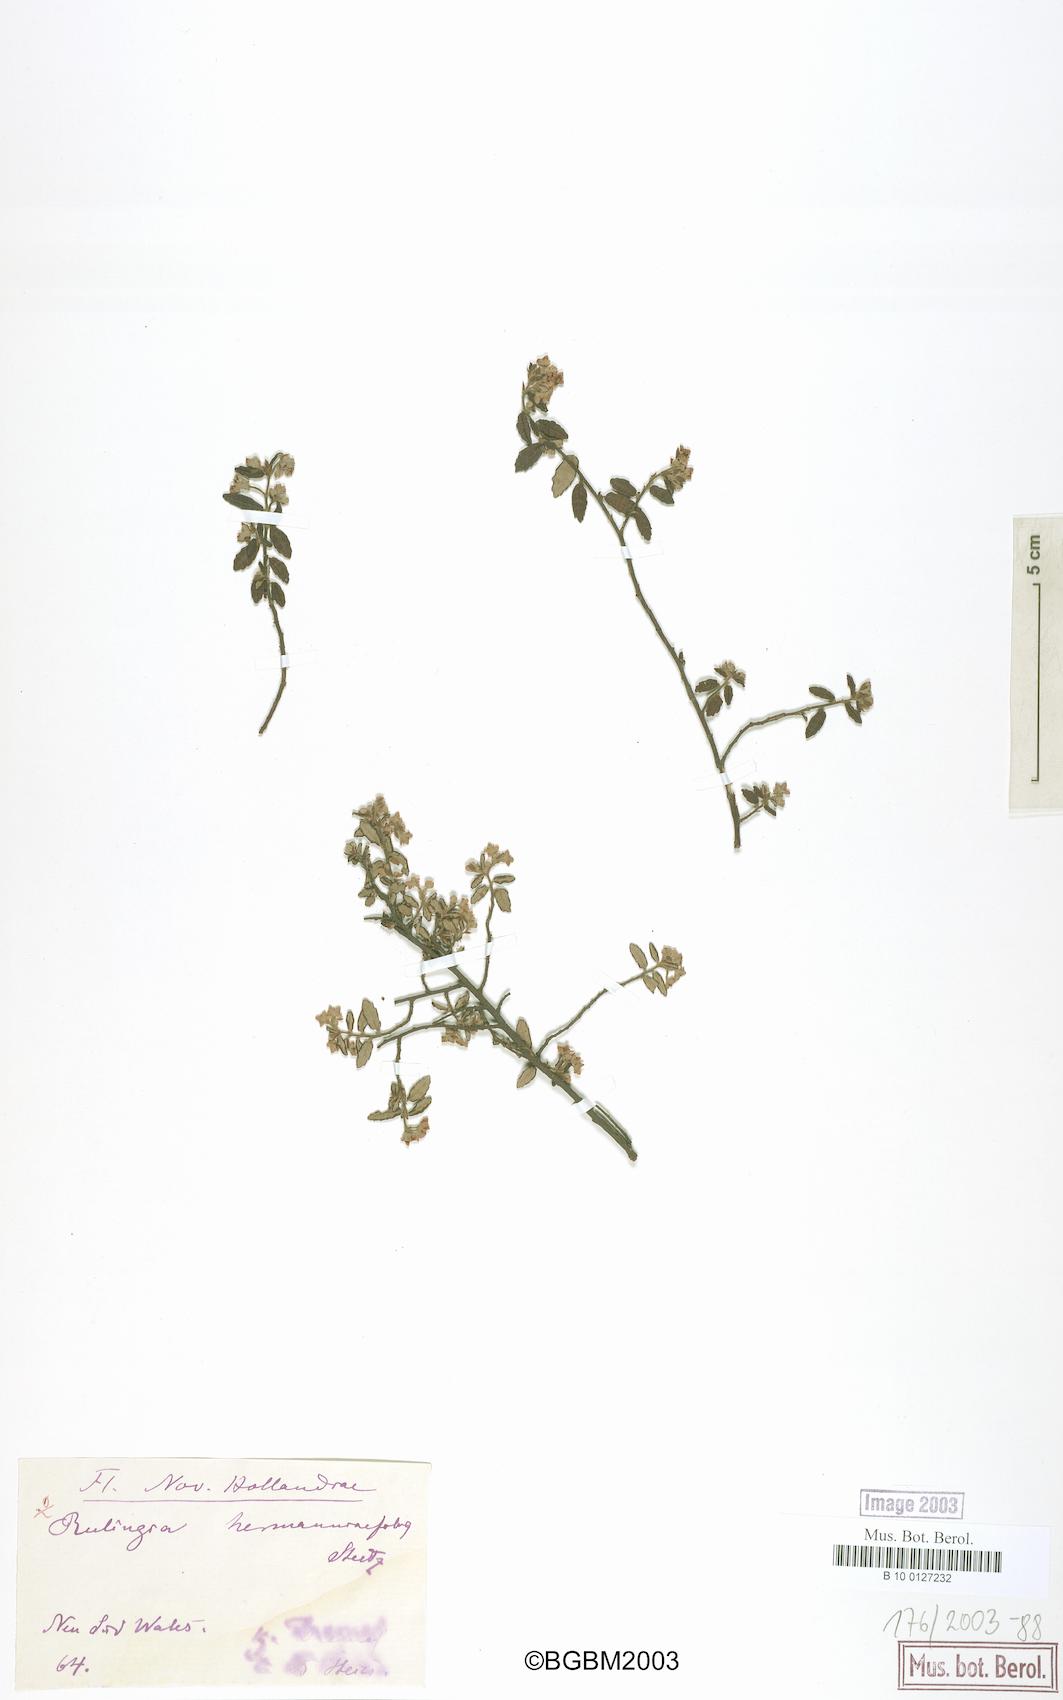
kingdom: Plantae
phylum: Tracheophyta
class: Magnoliopsida
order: Malvales
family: Malvaceae
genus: Commersonia
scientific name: Commersonia hermanniifolia
